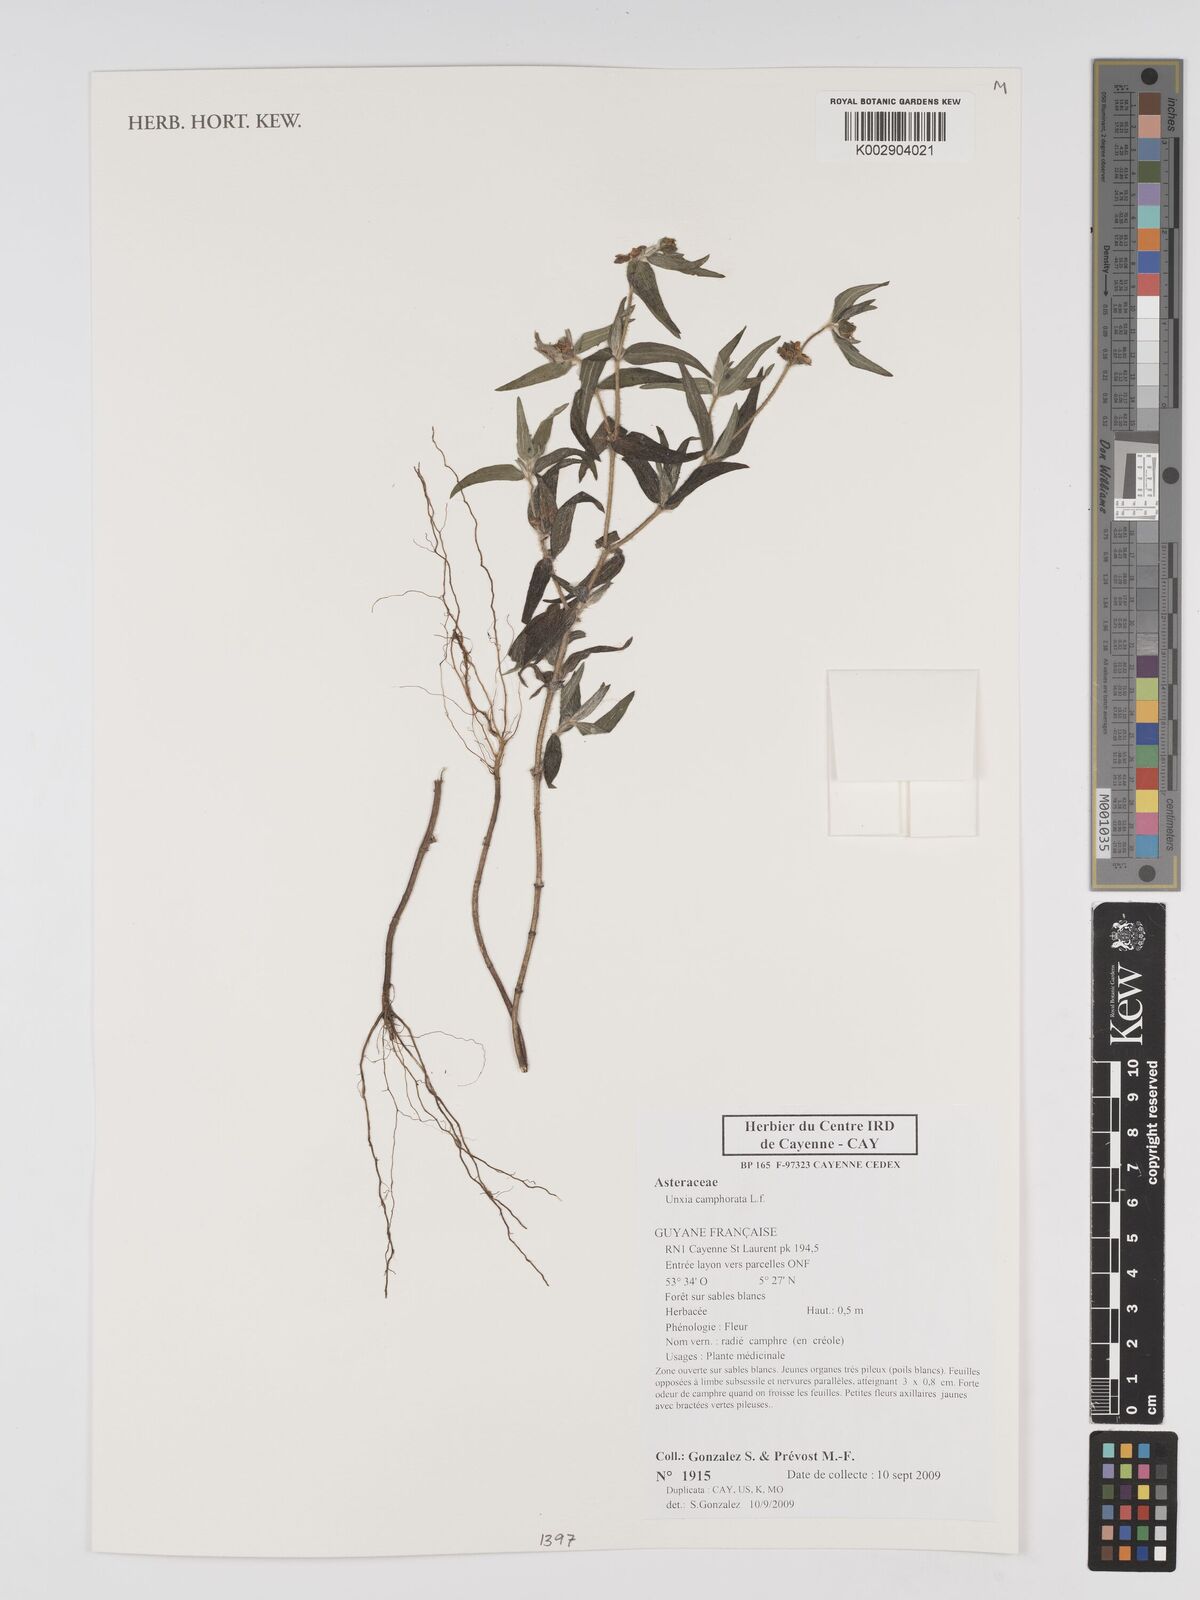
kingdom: Plantae
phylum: Tracheophyta
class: Magnoliopsida
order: Asterales
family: Asteraceae
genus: Unxia
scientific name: Unxia camphorata
